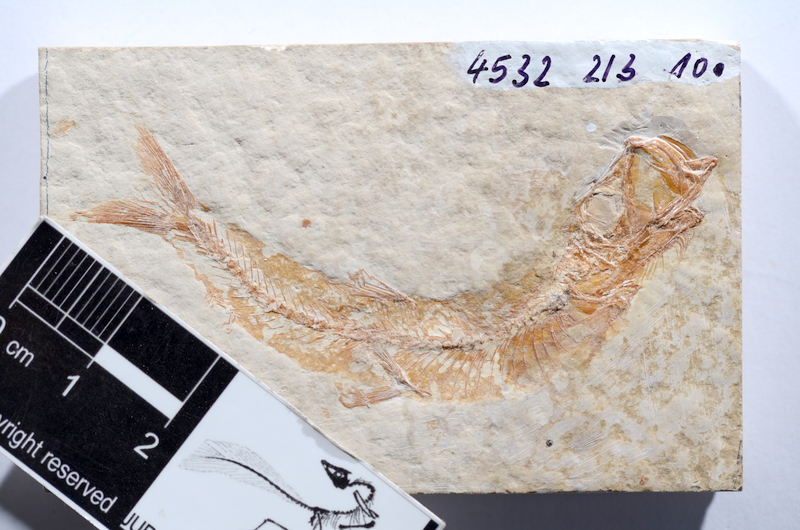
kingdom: Animalia
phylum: Chordata
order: Salmoniformes
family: Orthogonikleithridae
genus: Leptolepides
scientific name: Leptolepides sprattiformis
